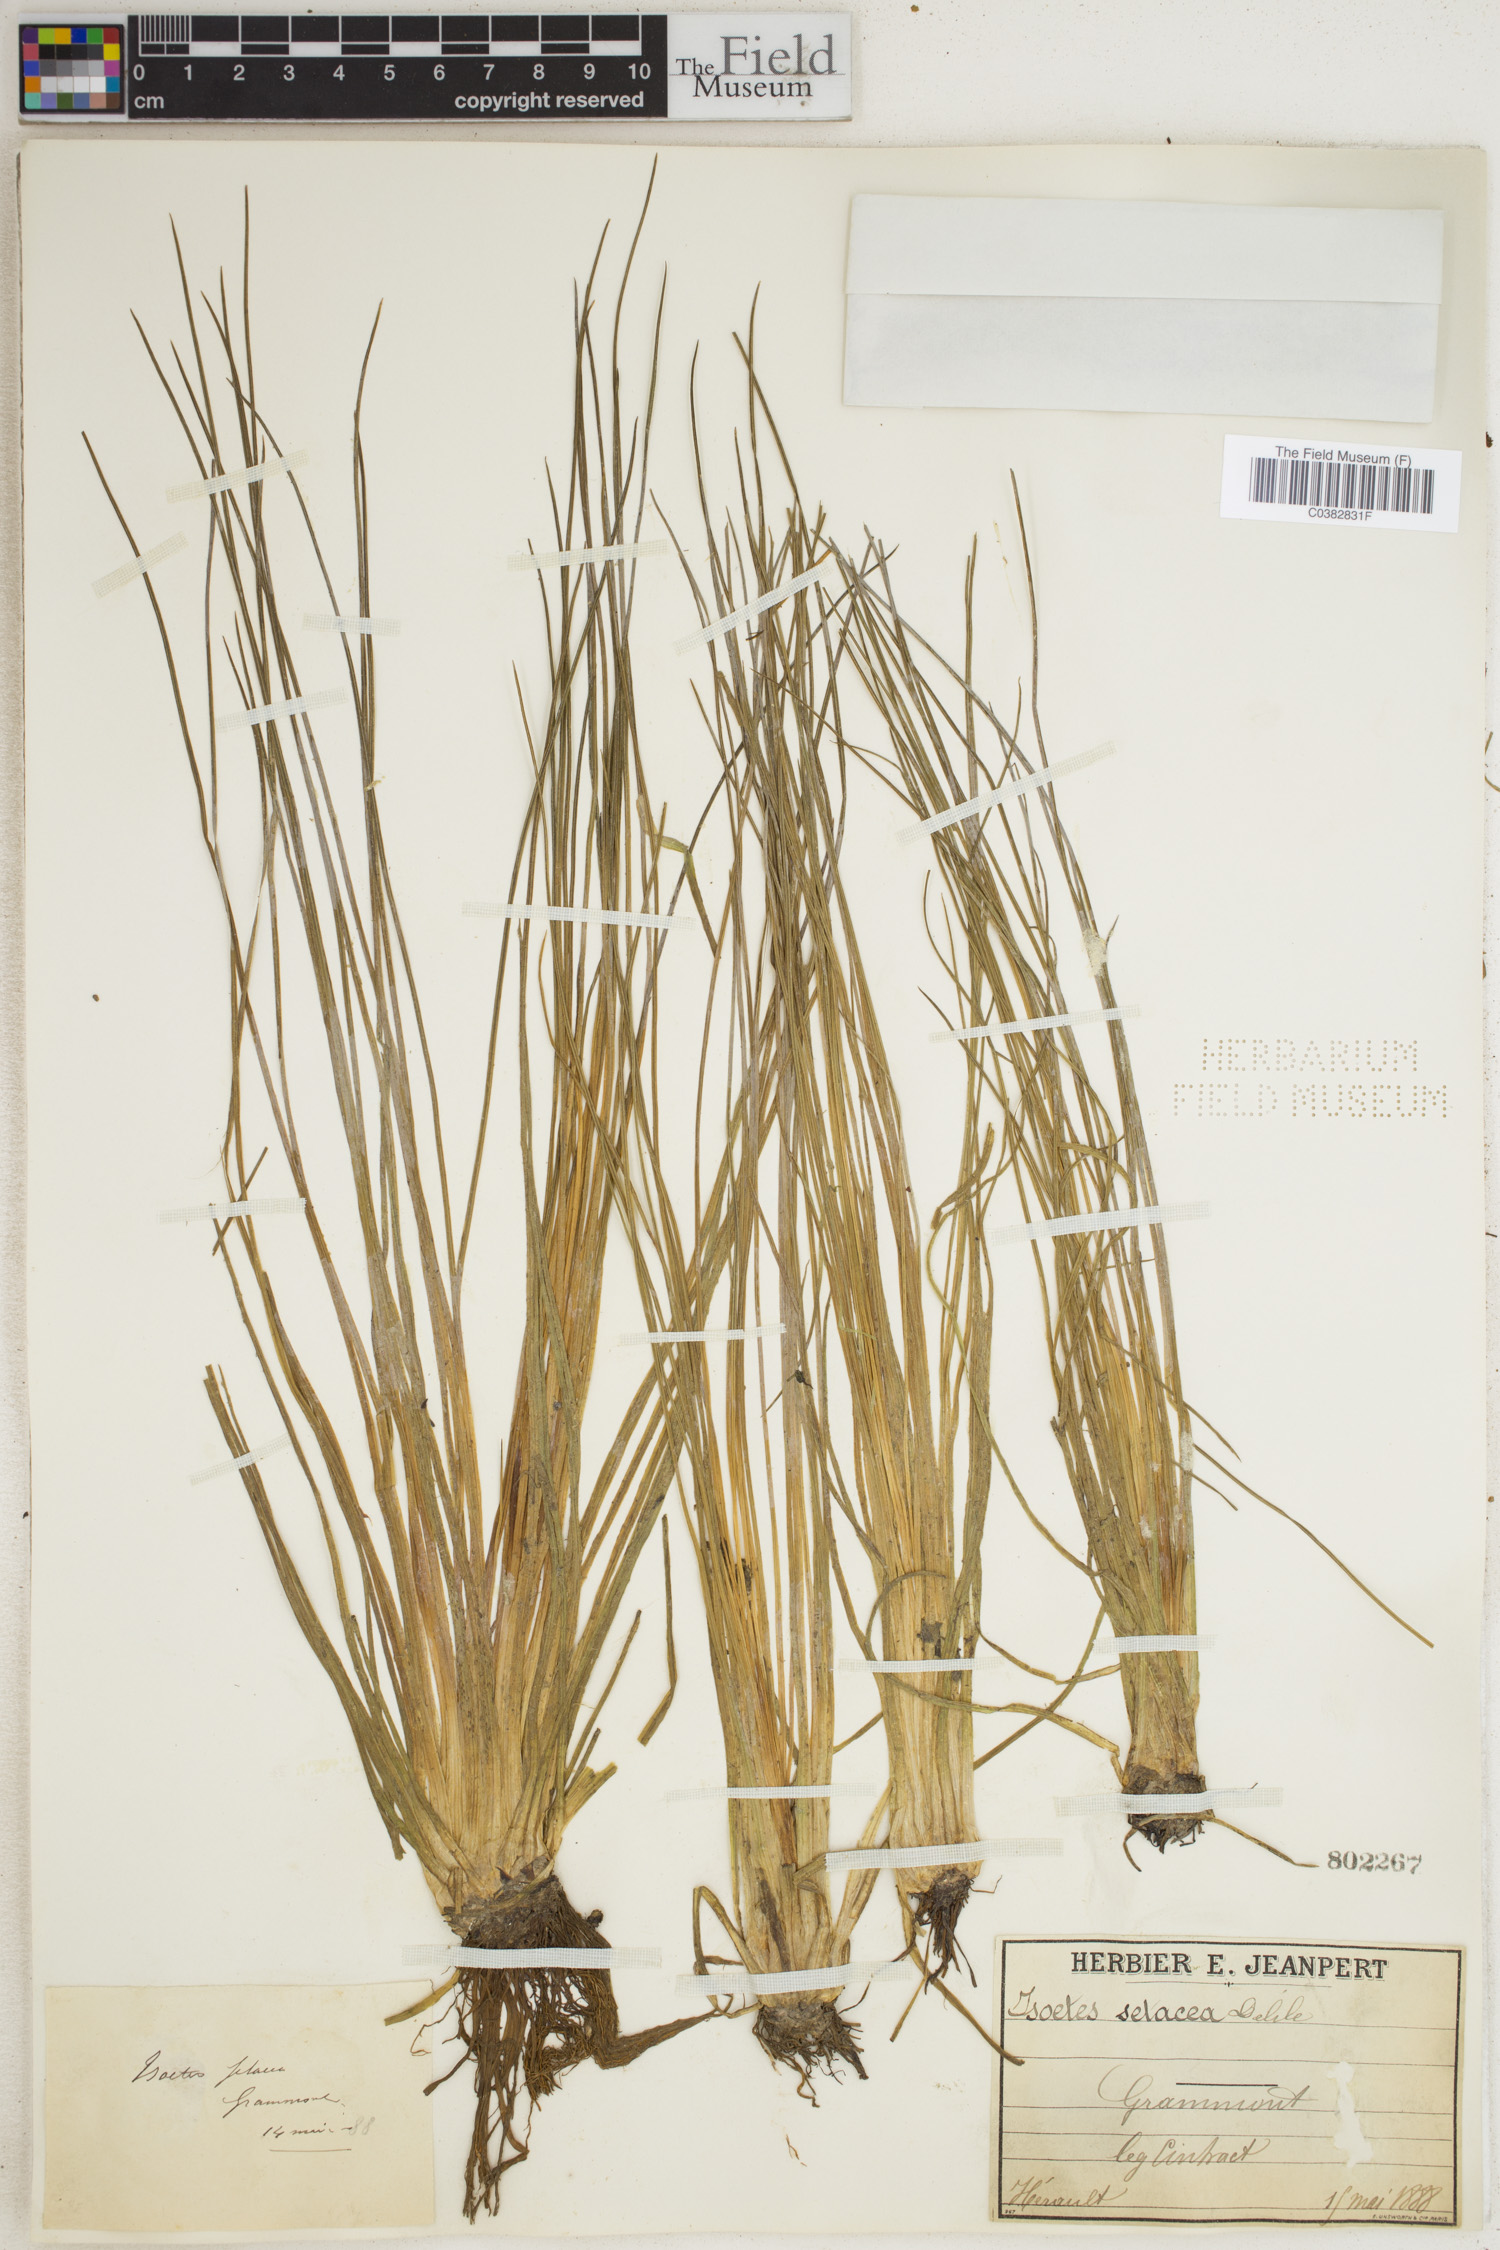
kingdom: Plantae
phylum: Tracheophyta
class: Lycopodiopsida
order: Isoetales
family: Isoetaceae
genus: Isoetes
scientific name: Isoetes lacustris
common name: Common quillwort
